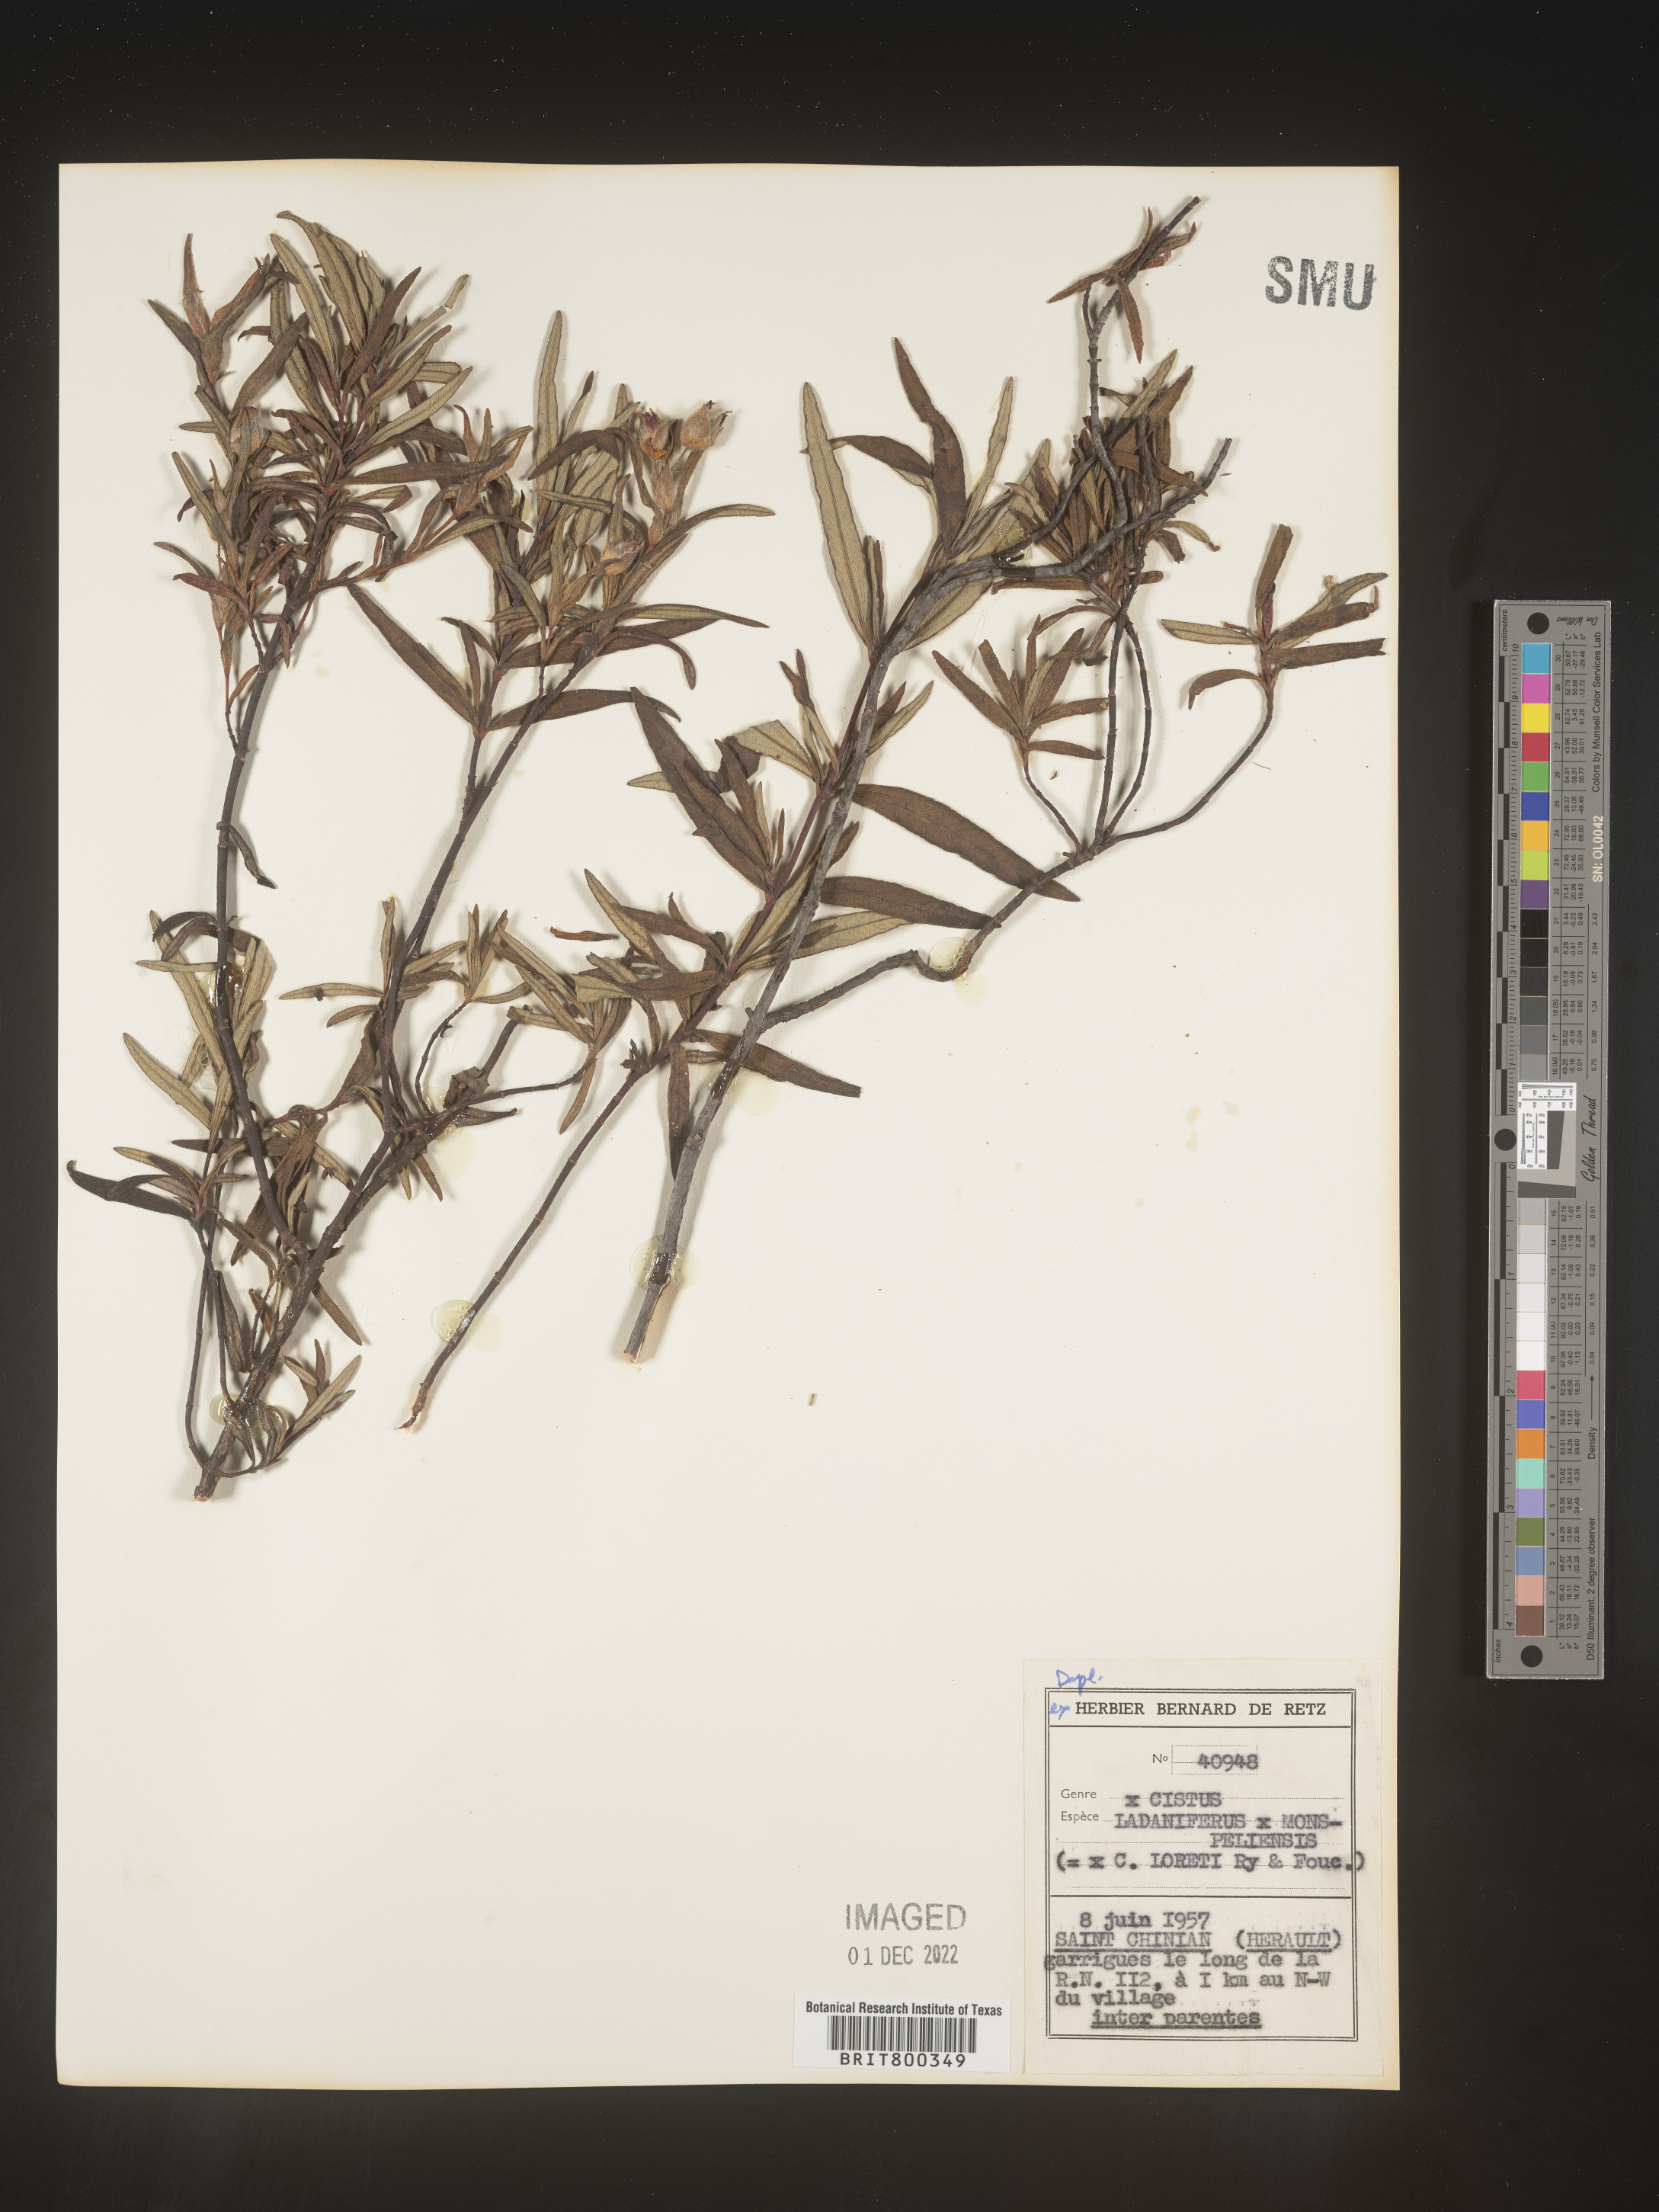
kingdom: Plantae
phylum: Tracheophyta
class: Magnoliopsida
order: Malvales
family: Cistaceae
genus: Cistus
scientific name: Cistus
